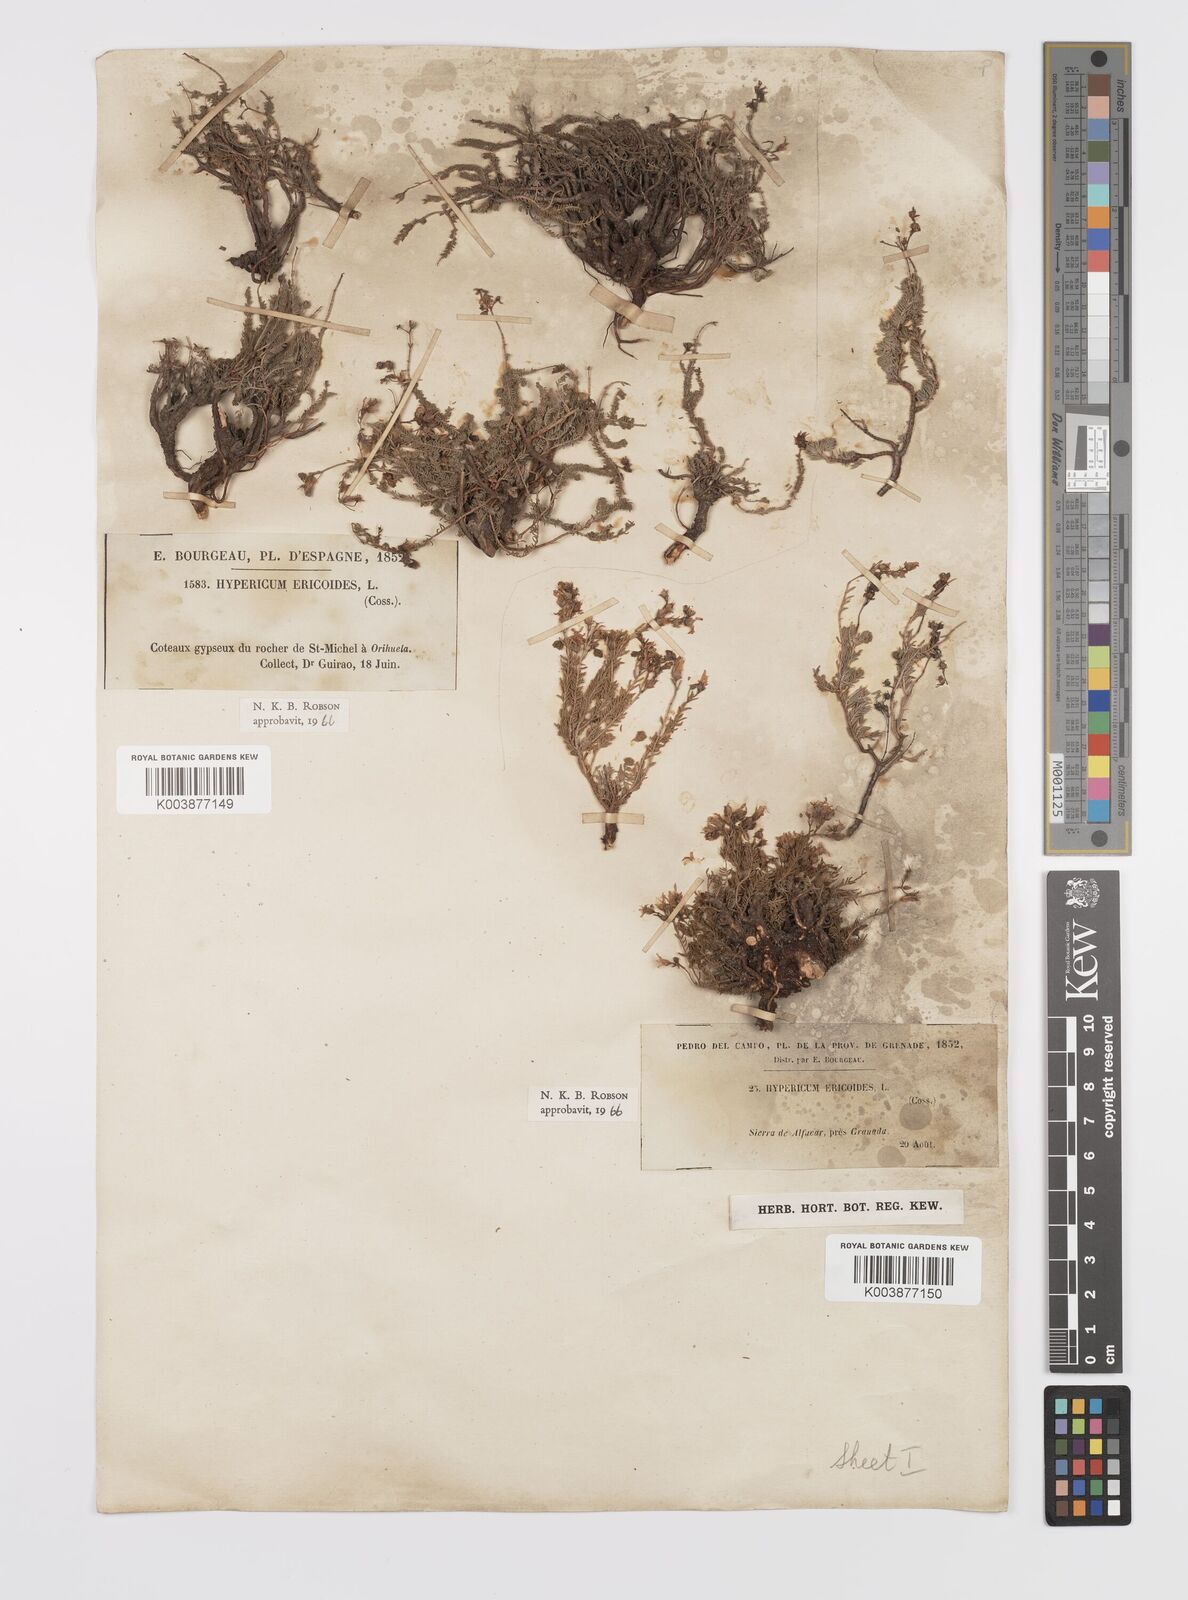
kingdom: Plantae
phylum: Tracheophyta
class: Magnoliopsida
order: Malpighiales
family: Hypericaceae
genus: Hypericum
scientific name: Hypericum ericoides
